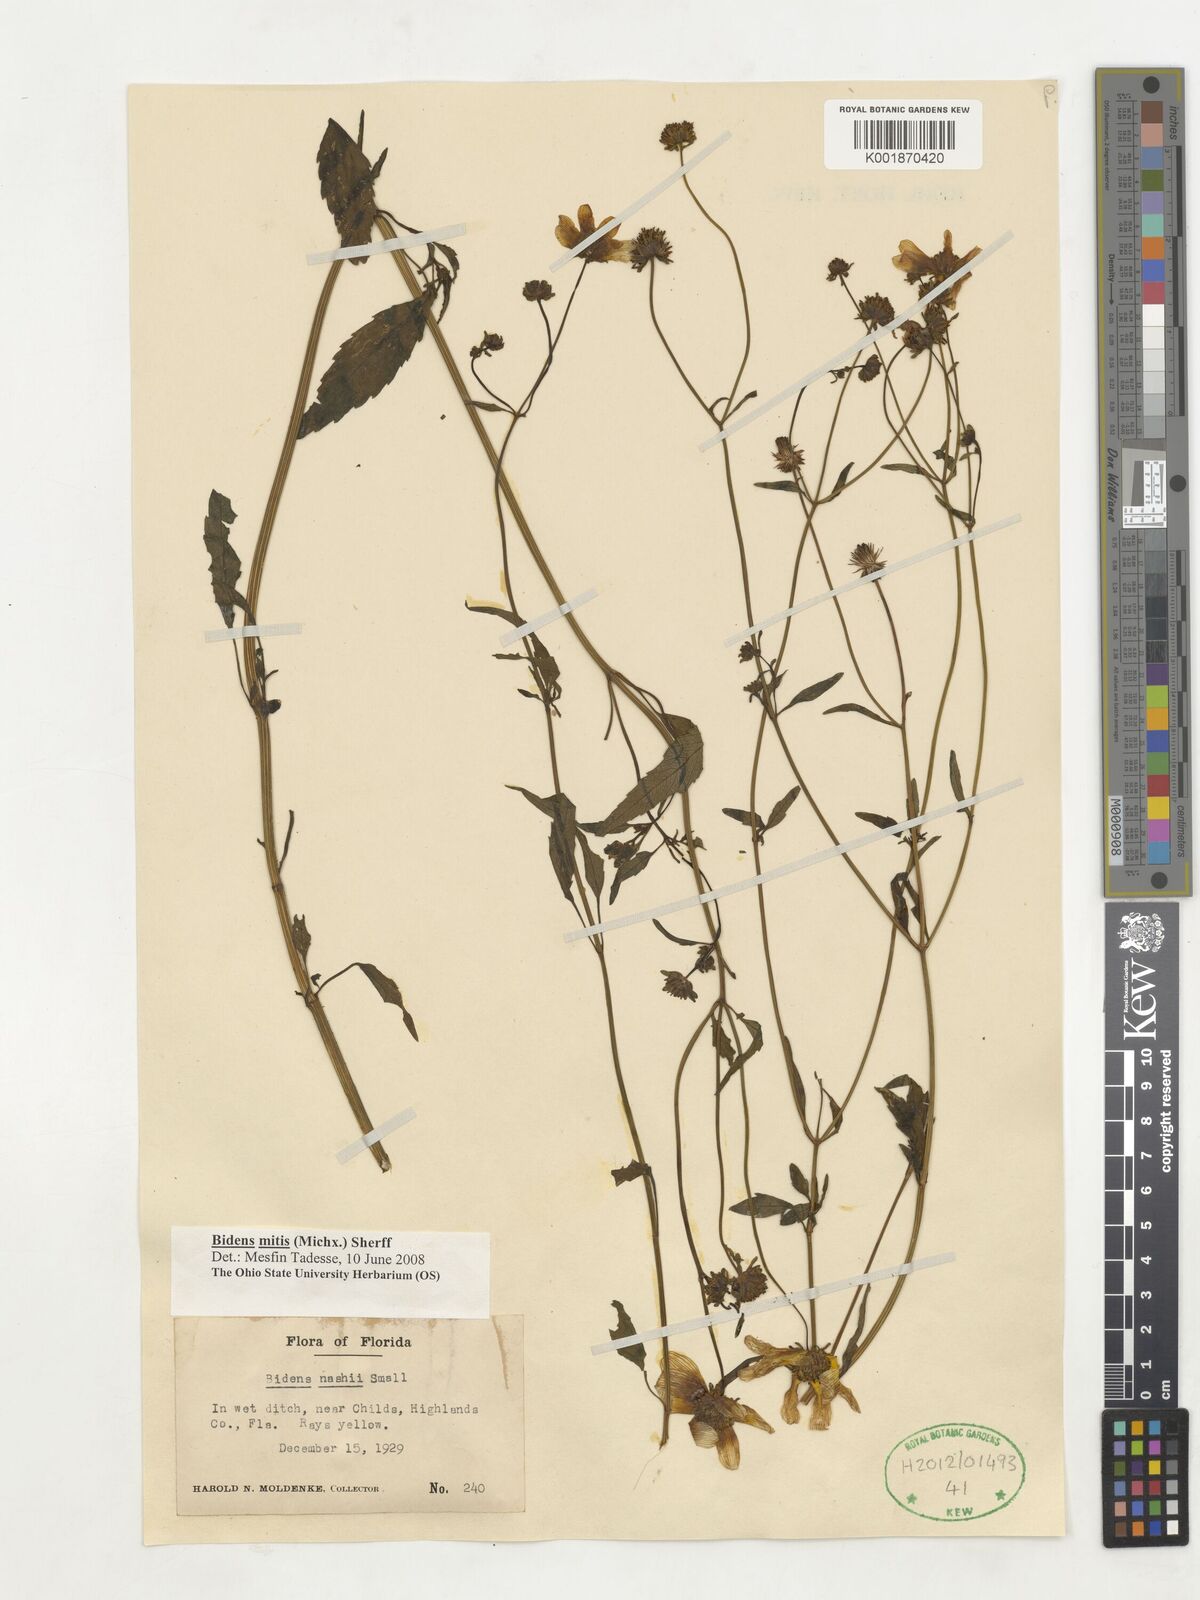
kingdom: Plantae
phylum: Tracheophyta
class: Magnoliopsida
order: Asterales
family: Asteraceae
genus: Bidens
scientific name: Bidens mitis
